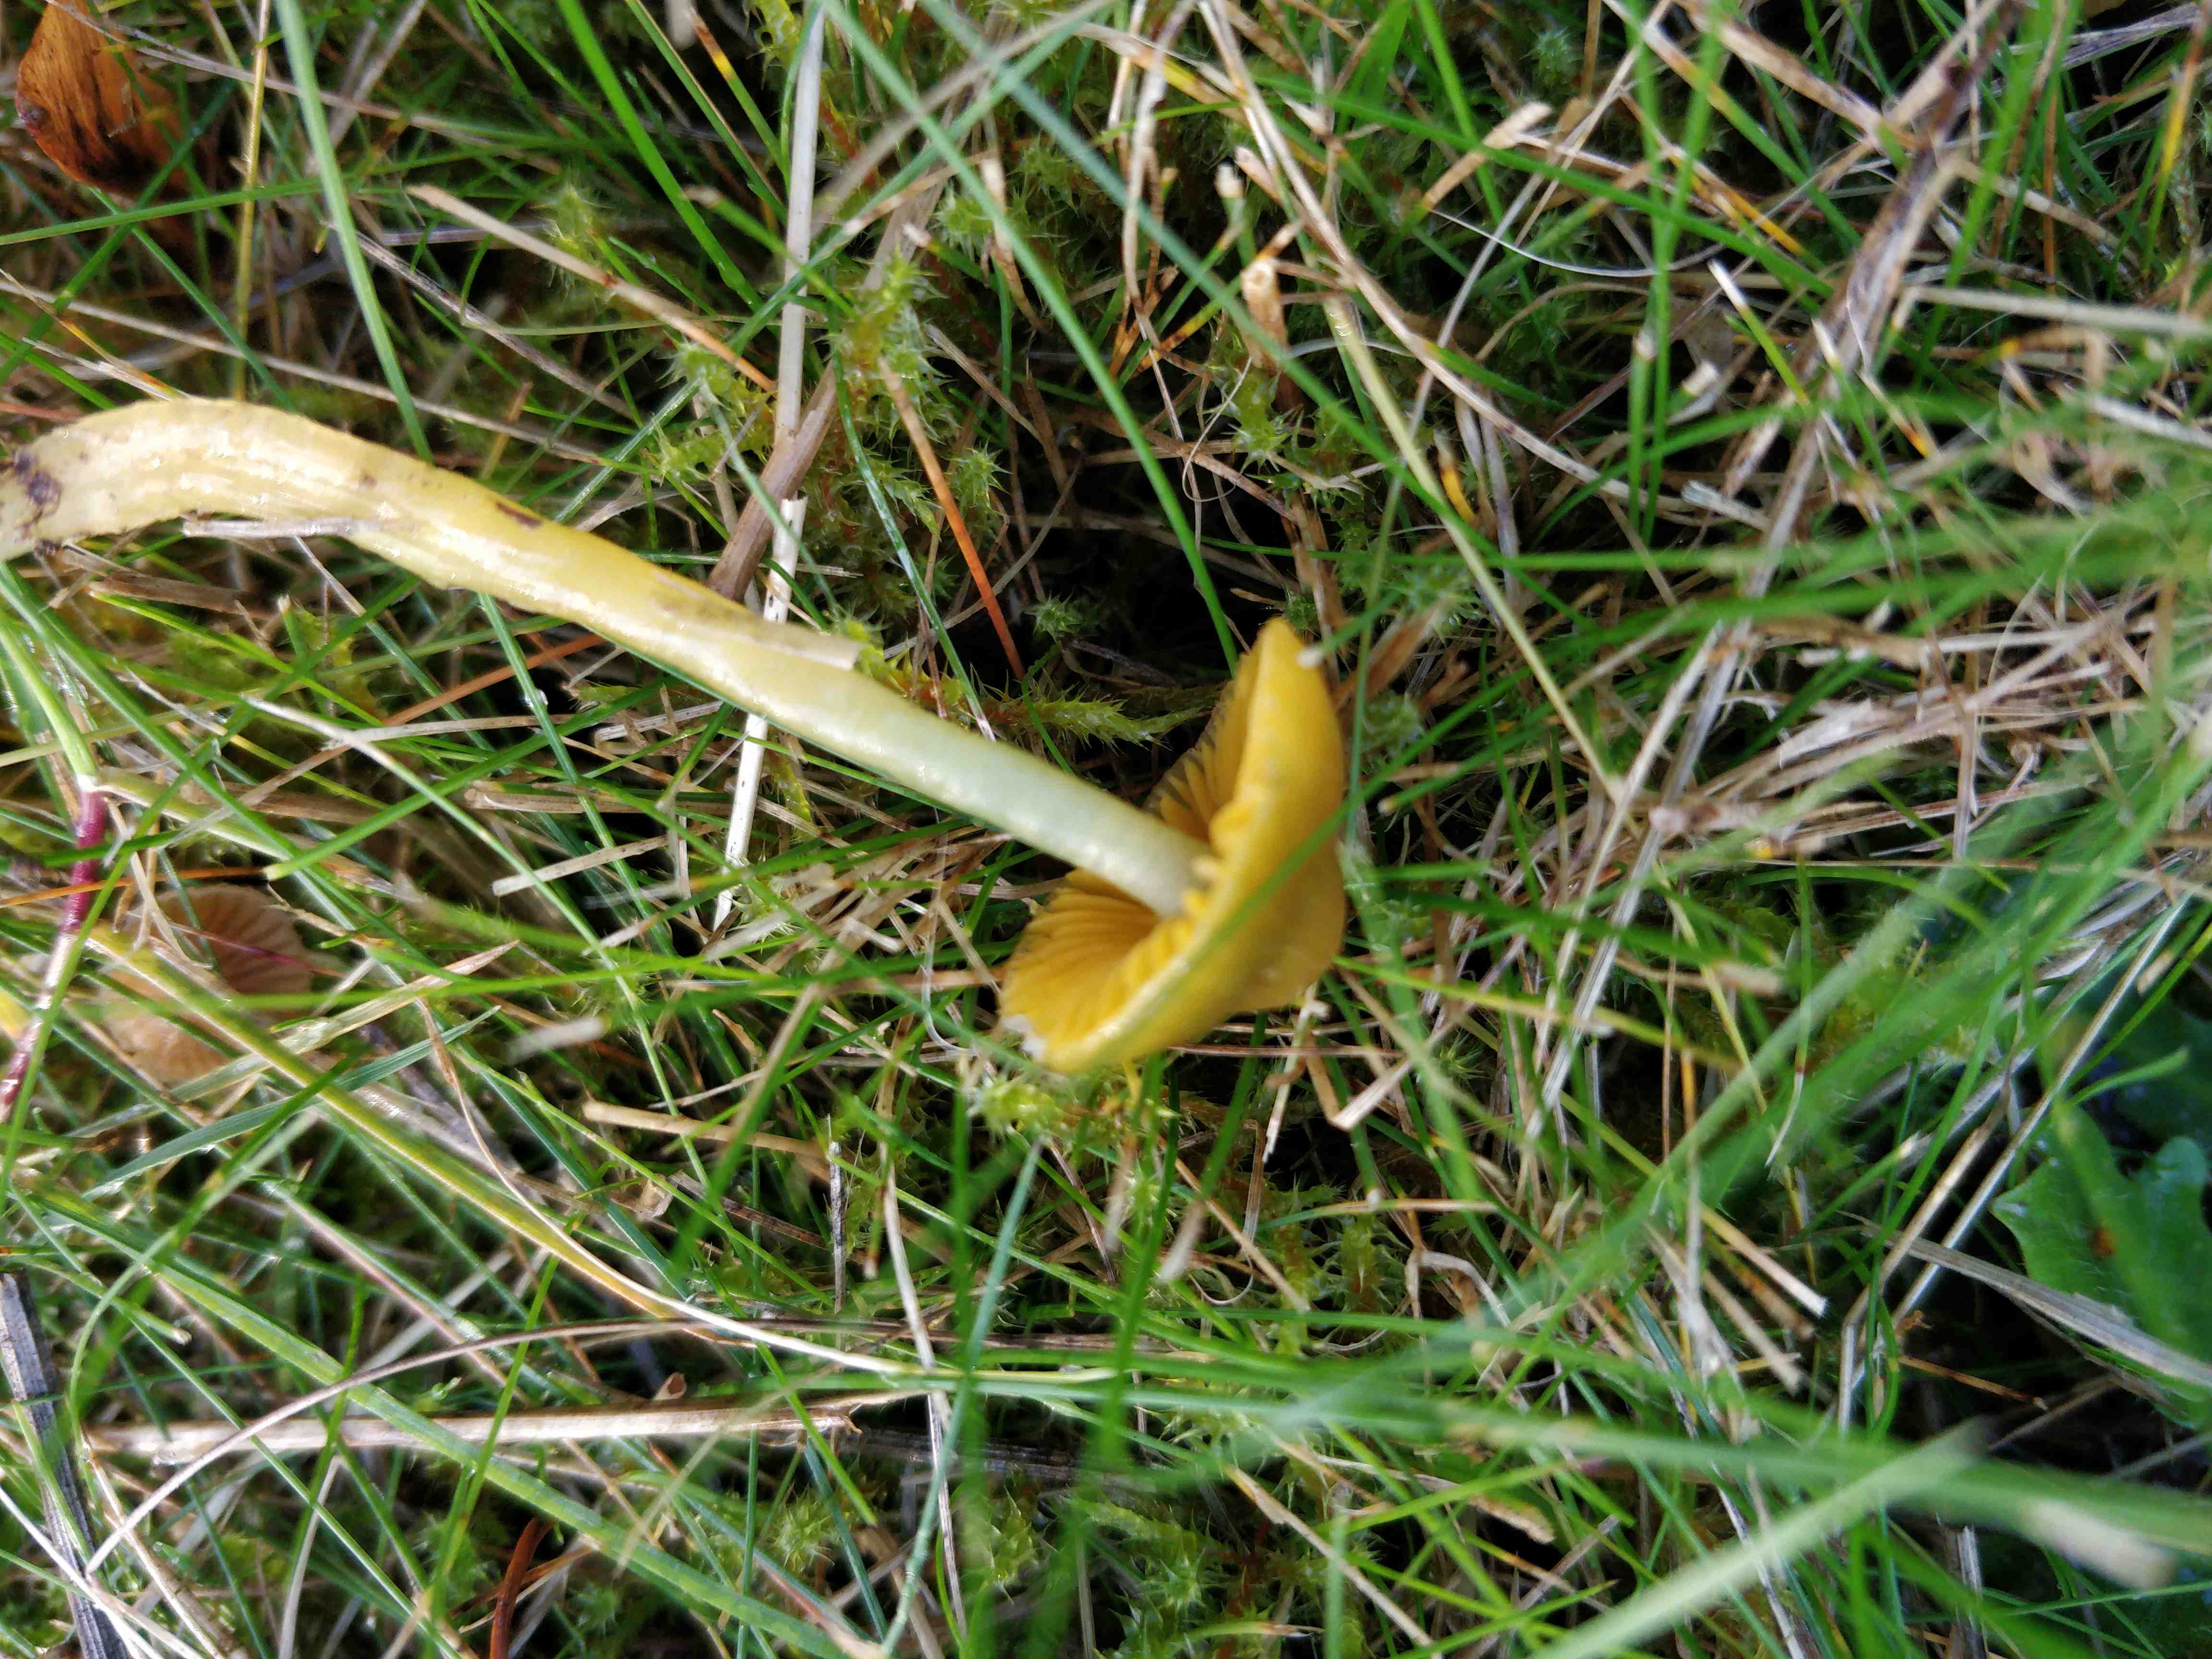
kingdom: Fungi
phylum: Basidiomycota
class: Agaricomycetes
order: Agaricales
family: Hygrophoraceae
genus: Gliophorus
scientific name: Gliophorus psittacinus
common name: papegøje-vokshat
